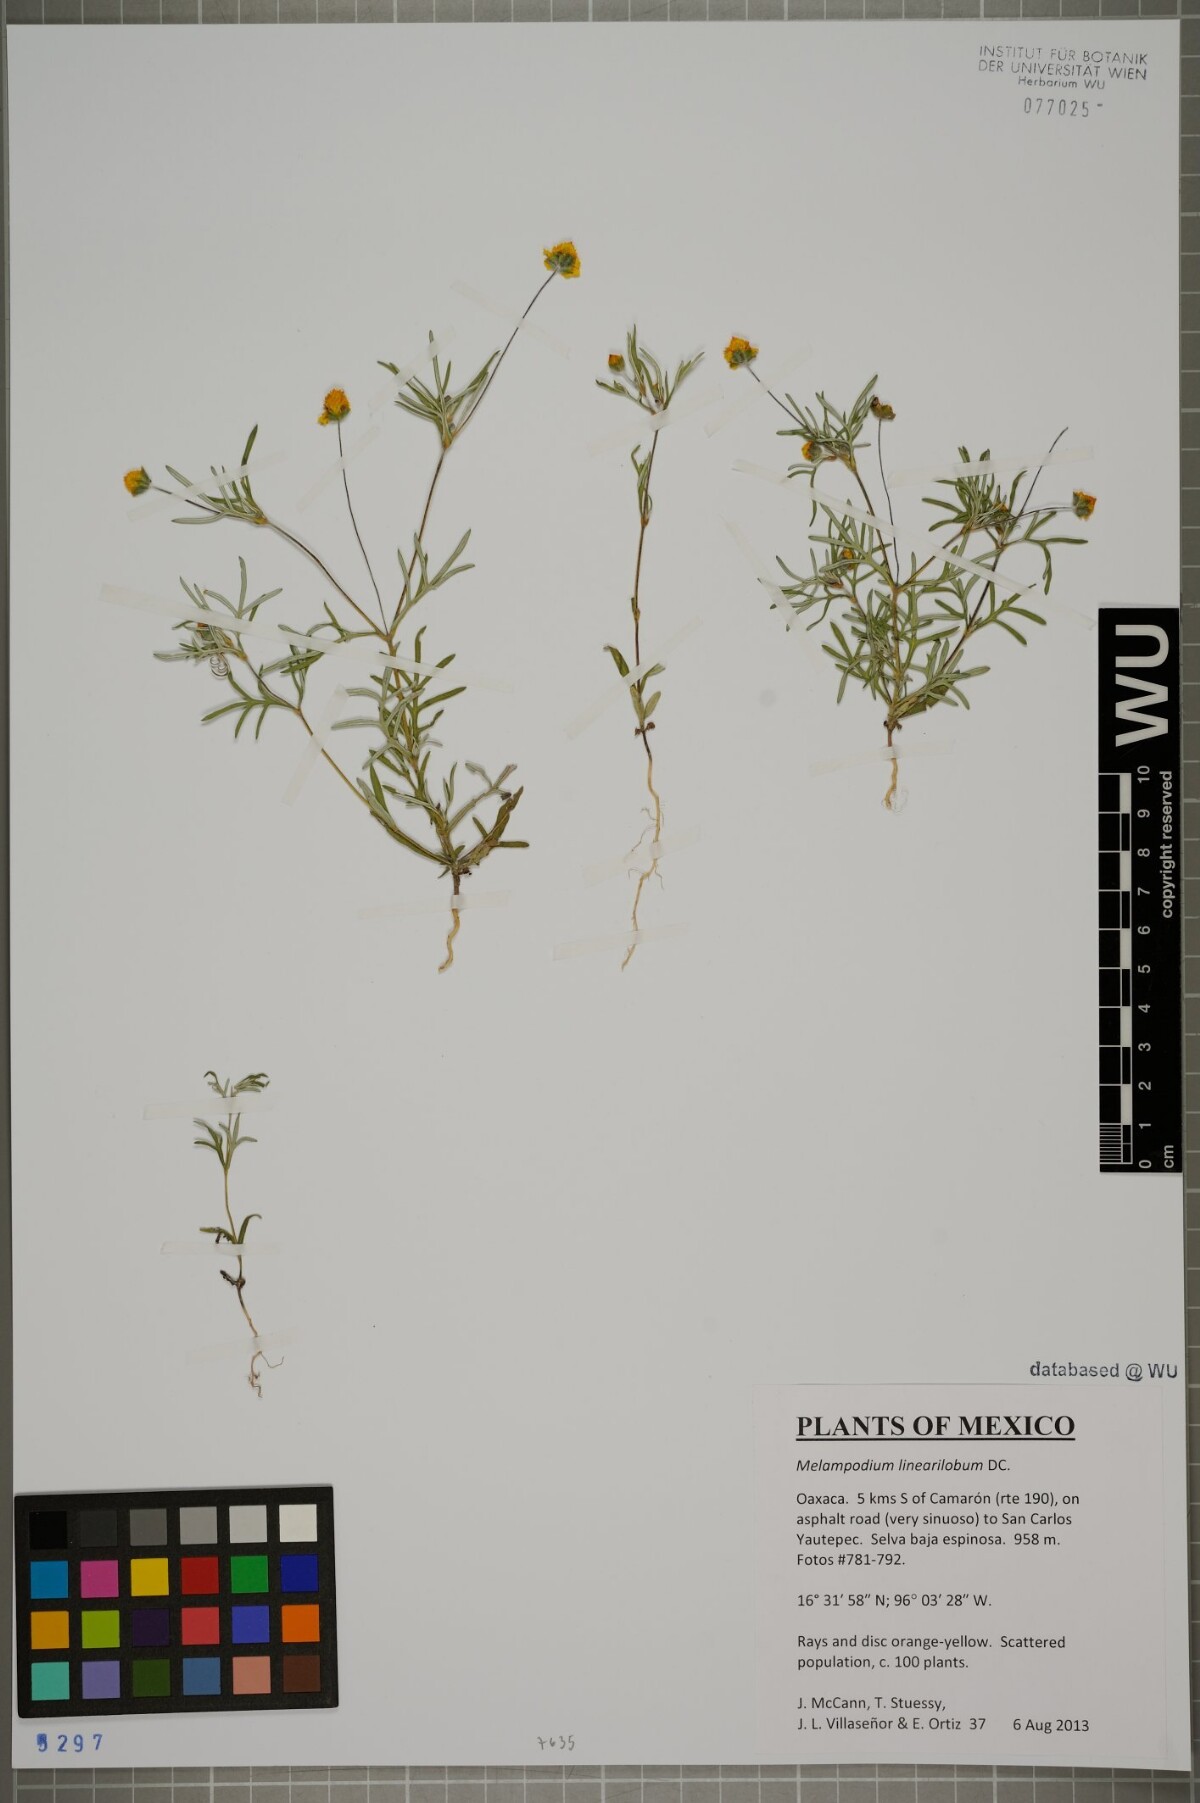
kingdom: Plantae
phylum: Tracheophyta
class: Magnoliopsida
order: Asterales
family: Asteraceae
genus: Melampodium
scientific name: Melampodium linearilobum
